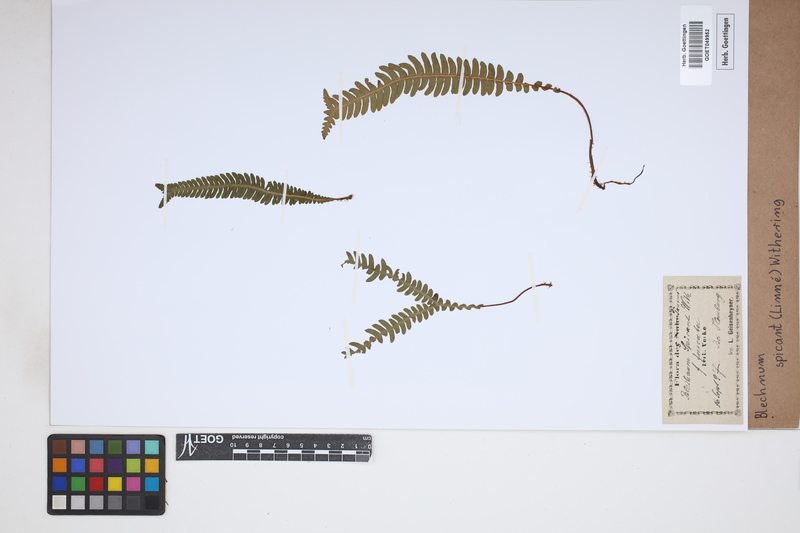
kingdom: Plantae
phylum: Tracheophyta
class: Polypodiopsida
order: Polypodiales
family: Blechnaceae
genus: Struthiopteris
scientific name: Struthiopteris spicant
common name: Deer fern
